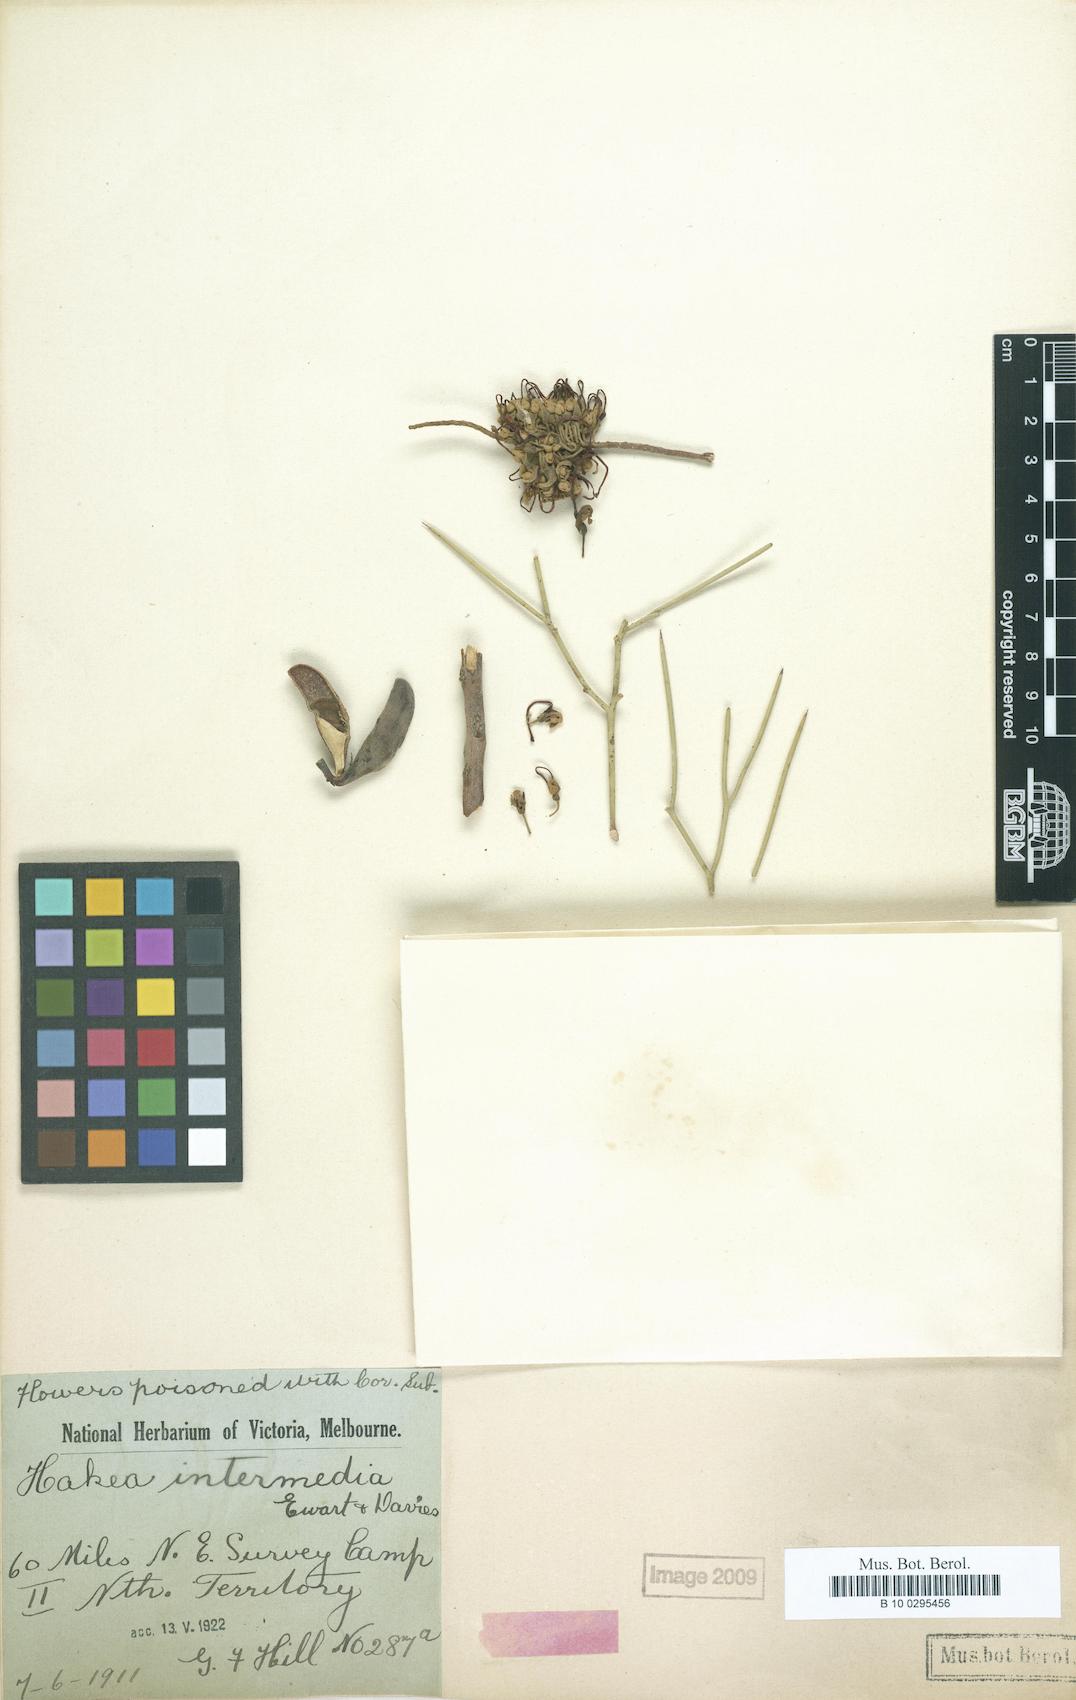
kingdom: Plantae
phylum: Tracheophyta
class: Magnoliopsida
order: Proteales
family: Proteaceae
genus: Hakea
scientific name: Hakea divaricata
